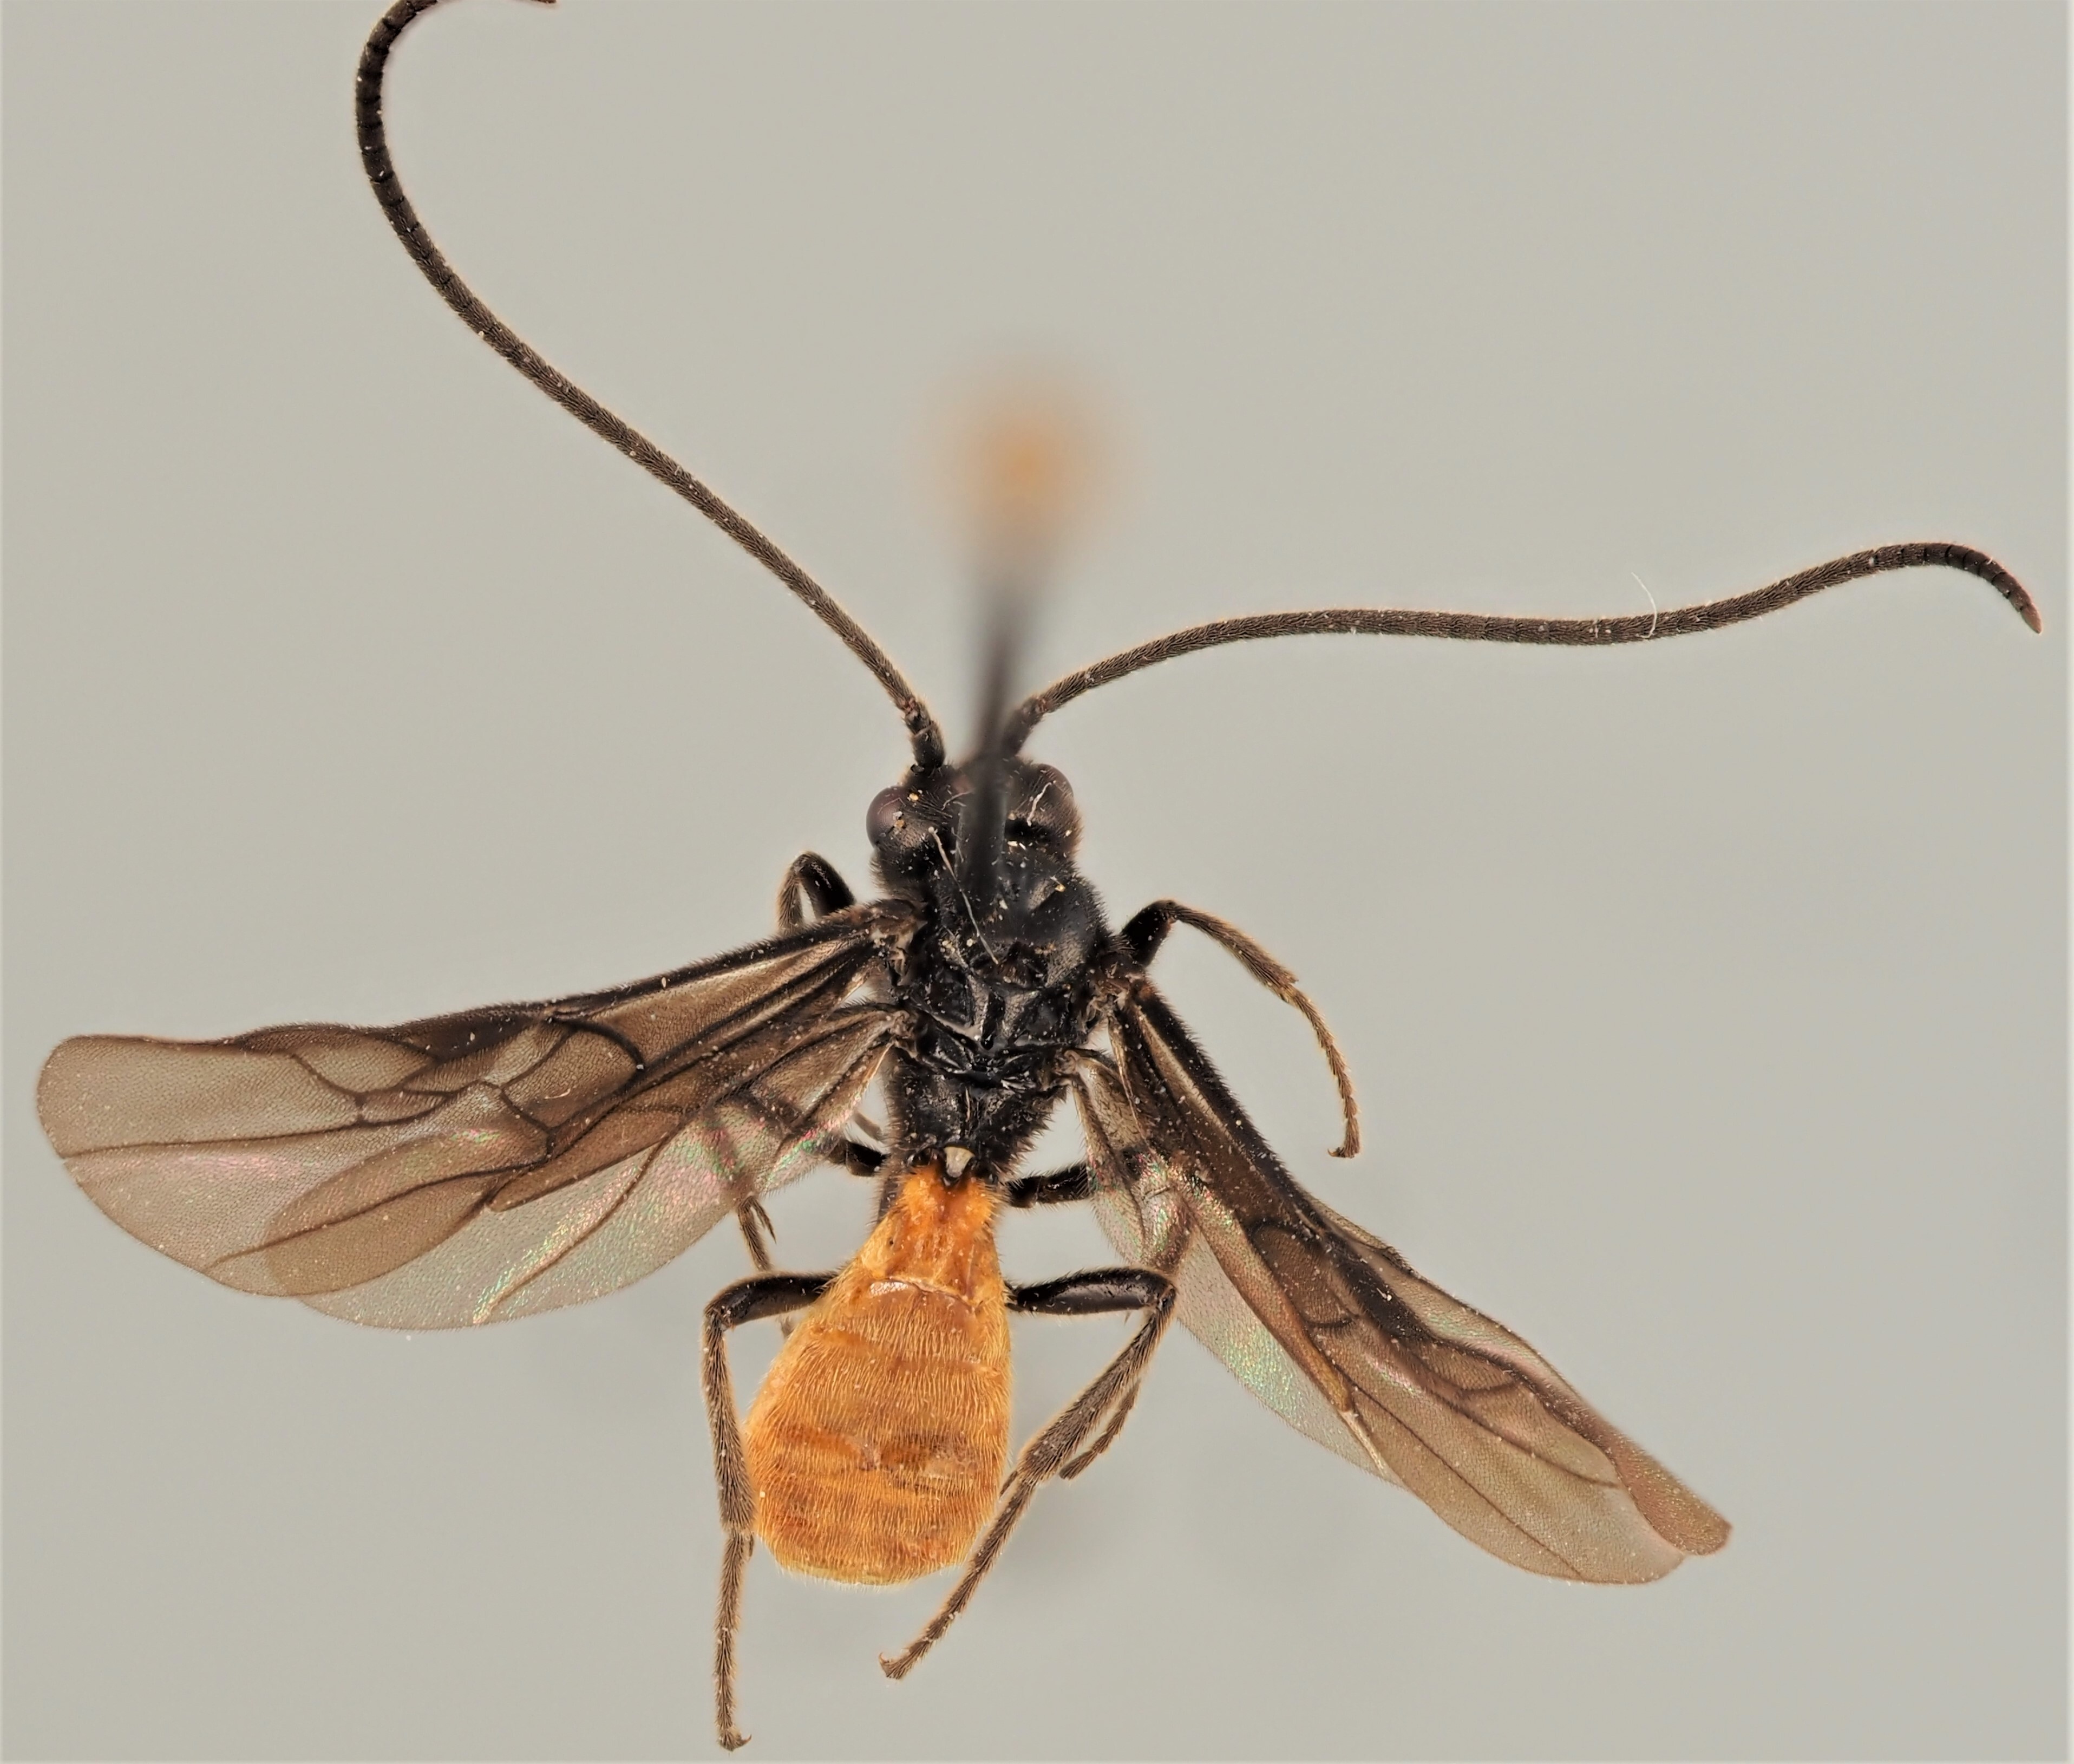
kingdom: Animalia
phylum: Arthropoda
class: Insecta
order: Hymenoptera
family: Braconidae
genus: Ichneutes
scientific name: Ichneutes
